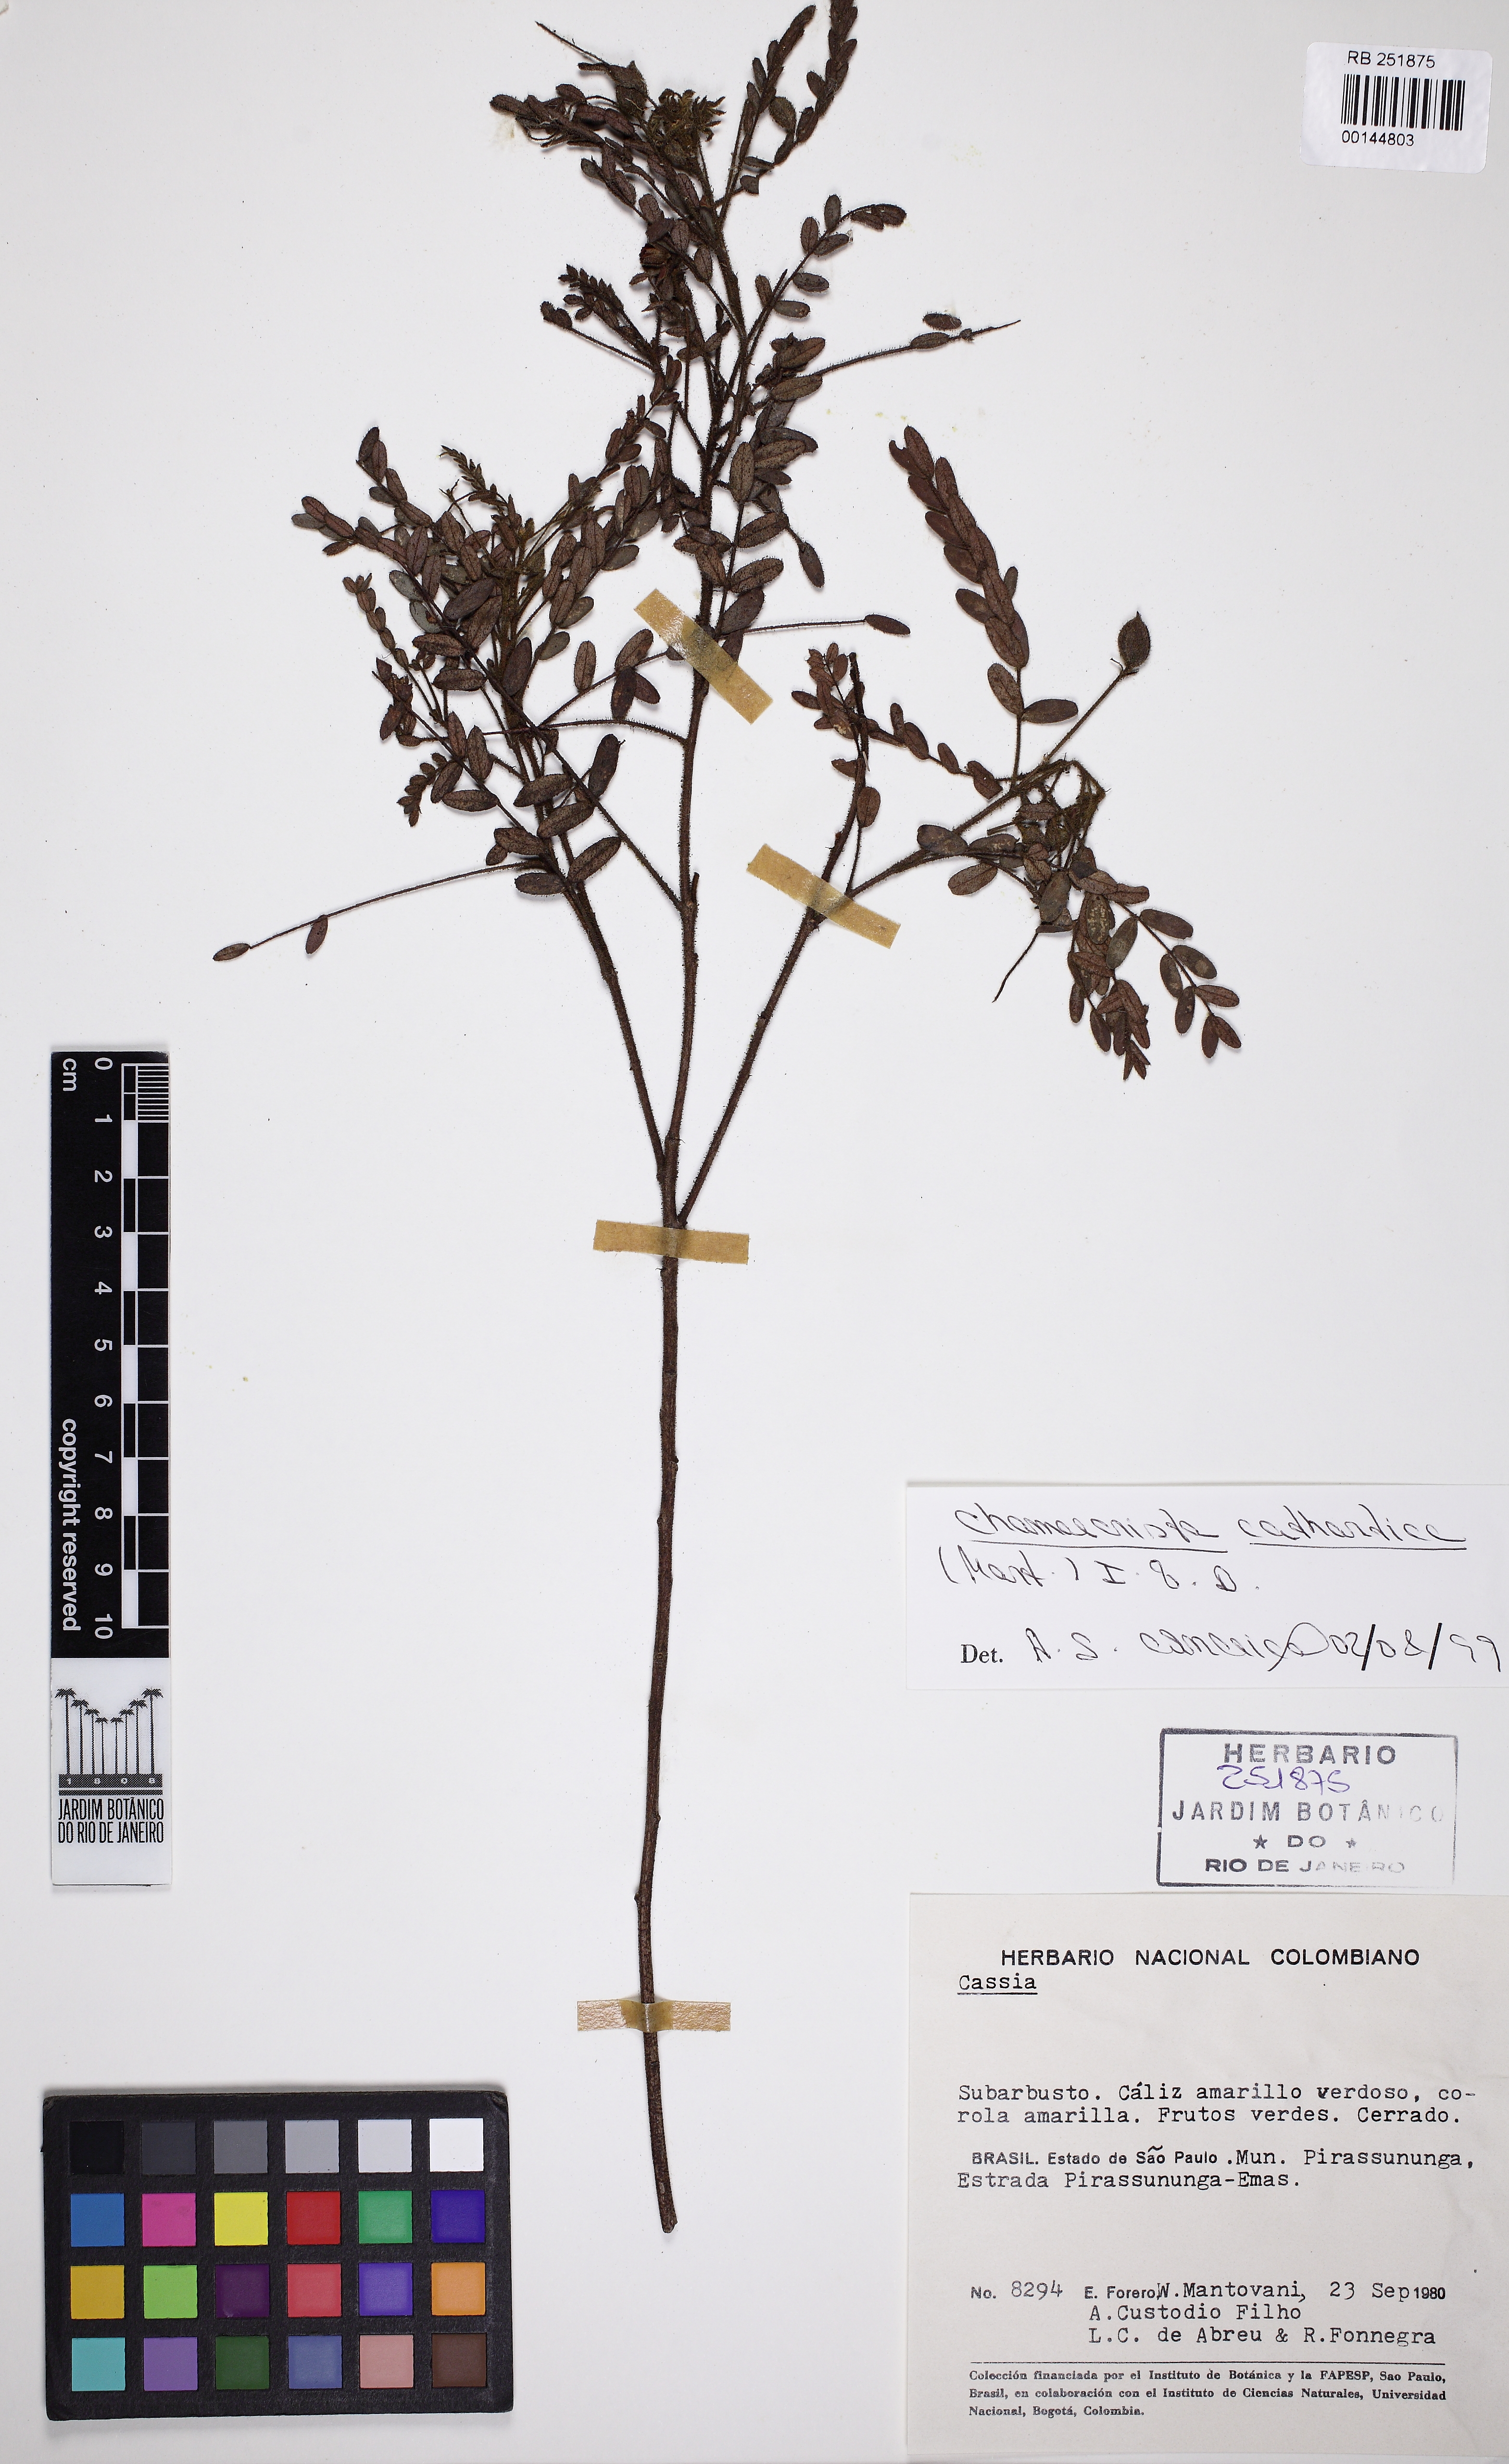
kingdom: Plantae
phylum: Tracheophyta
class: Magnoliopsida
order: Fabales
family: Fabaceae
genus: Chamaecrista
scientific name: Chamaecrista cathartica
